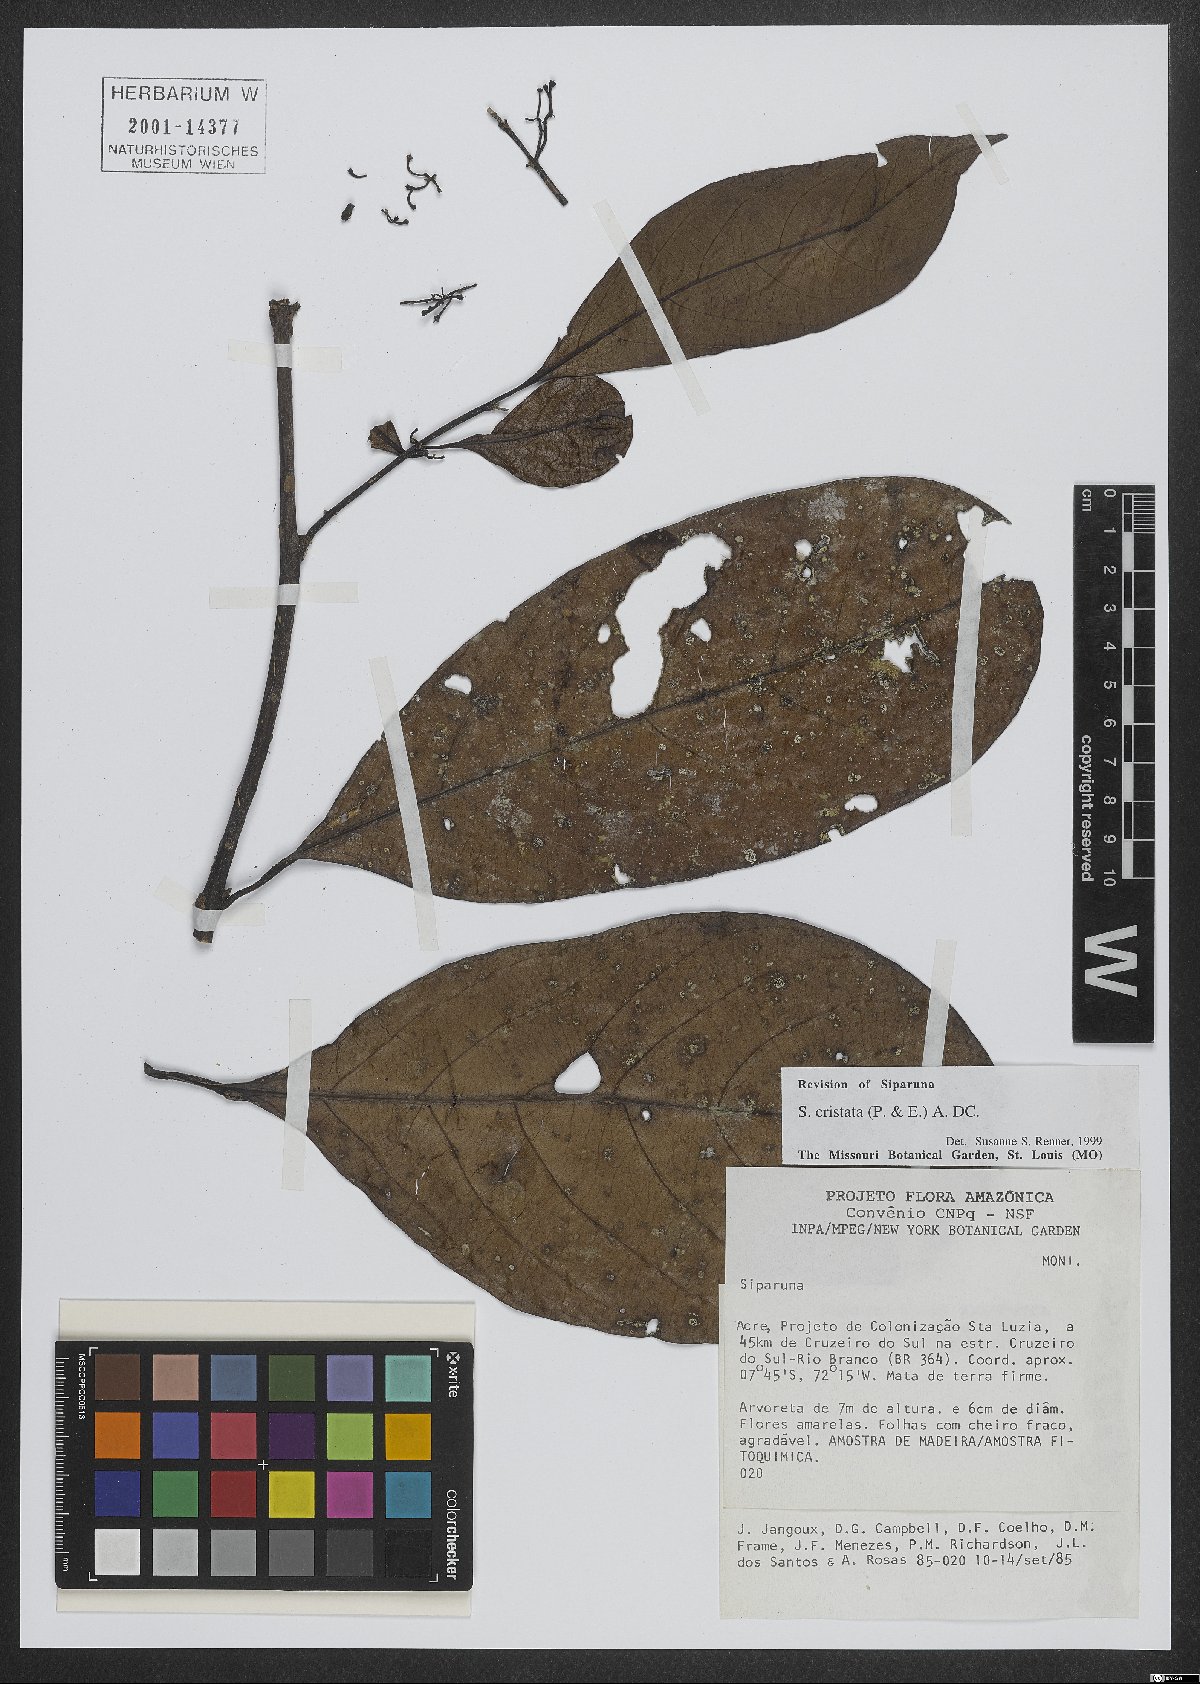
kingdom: Plantae
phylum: Tracheophyta
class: Magnoliopsida
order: Laurales
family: Siparunaceae
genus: Siparuna
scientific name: Siparuna cristata
